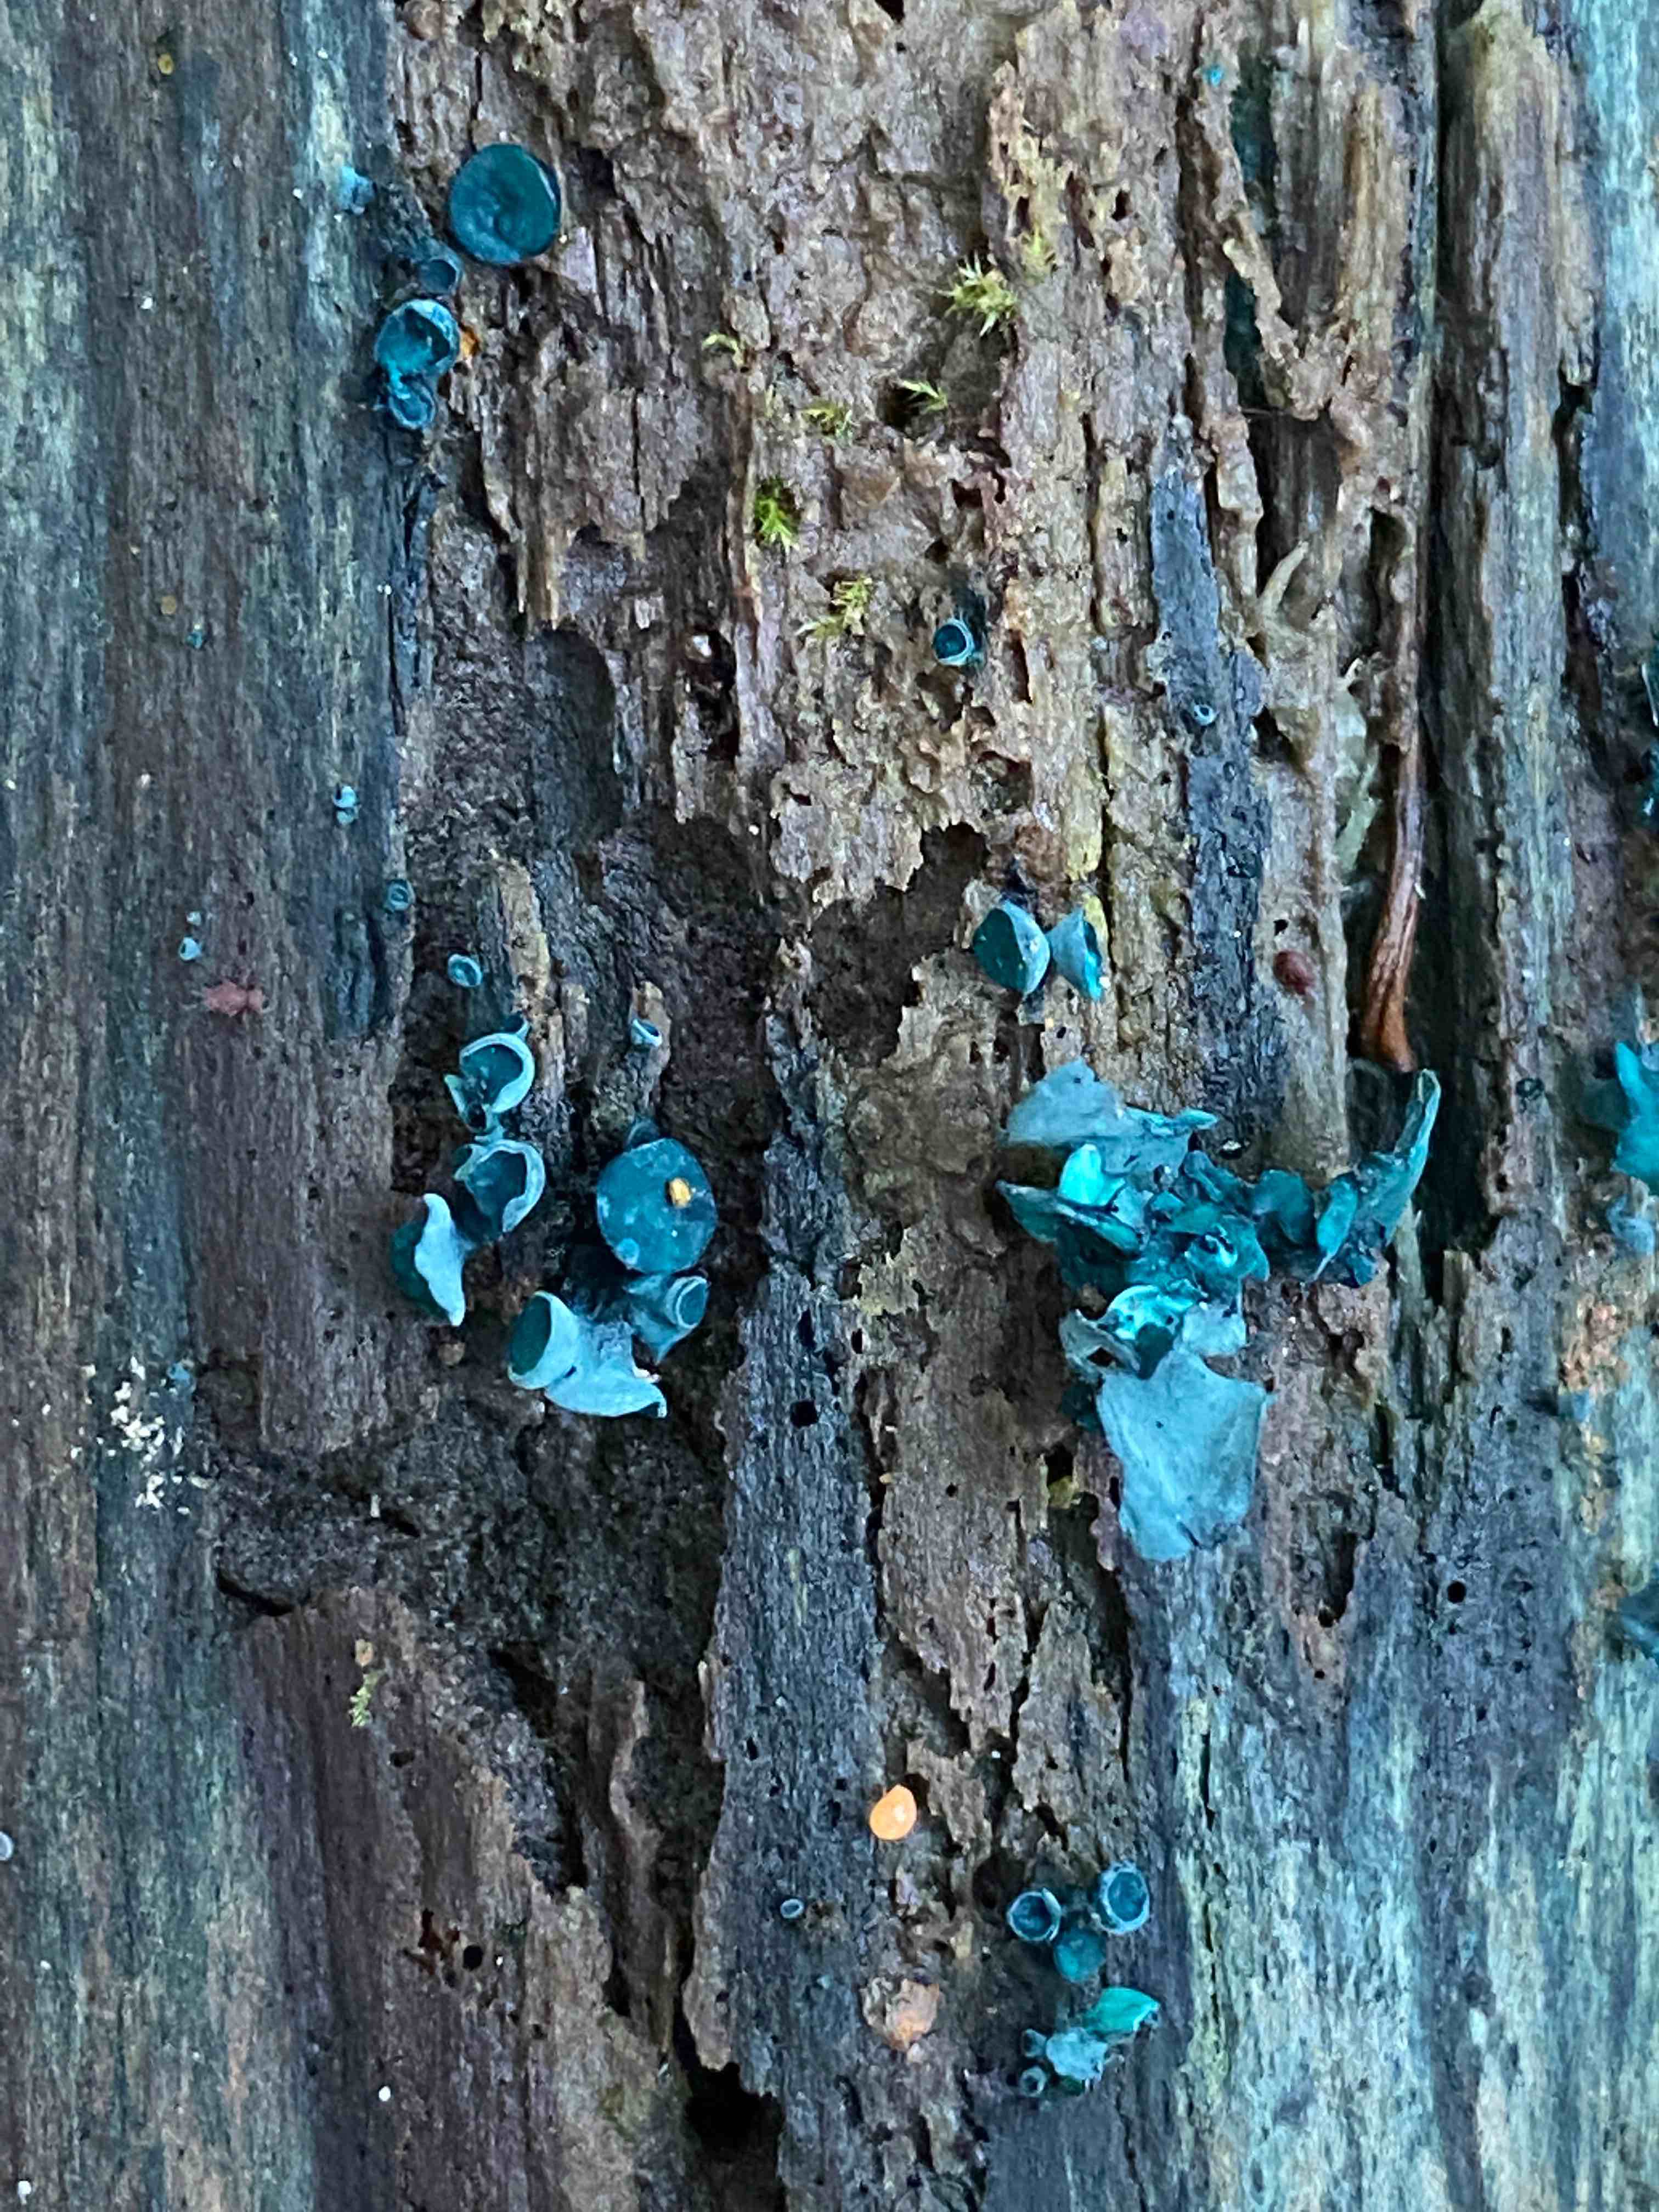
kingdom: Fungi
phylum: Ascomycota
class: Leotiomycetes
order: Helotiales
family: Chlorociboriaceae
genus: Chlorociboria
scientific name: Chlorociboria aeruginascens
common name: almindelig grønskive
